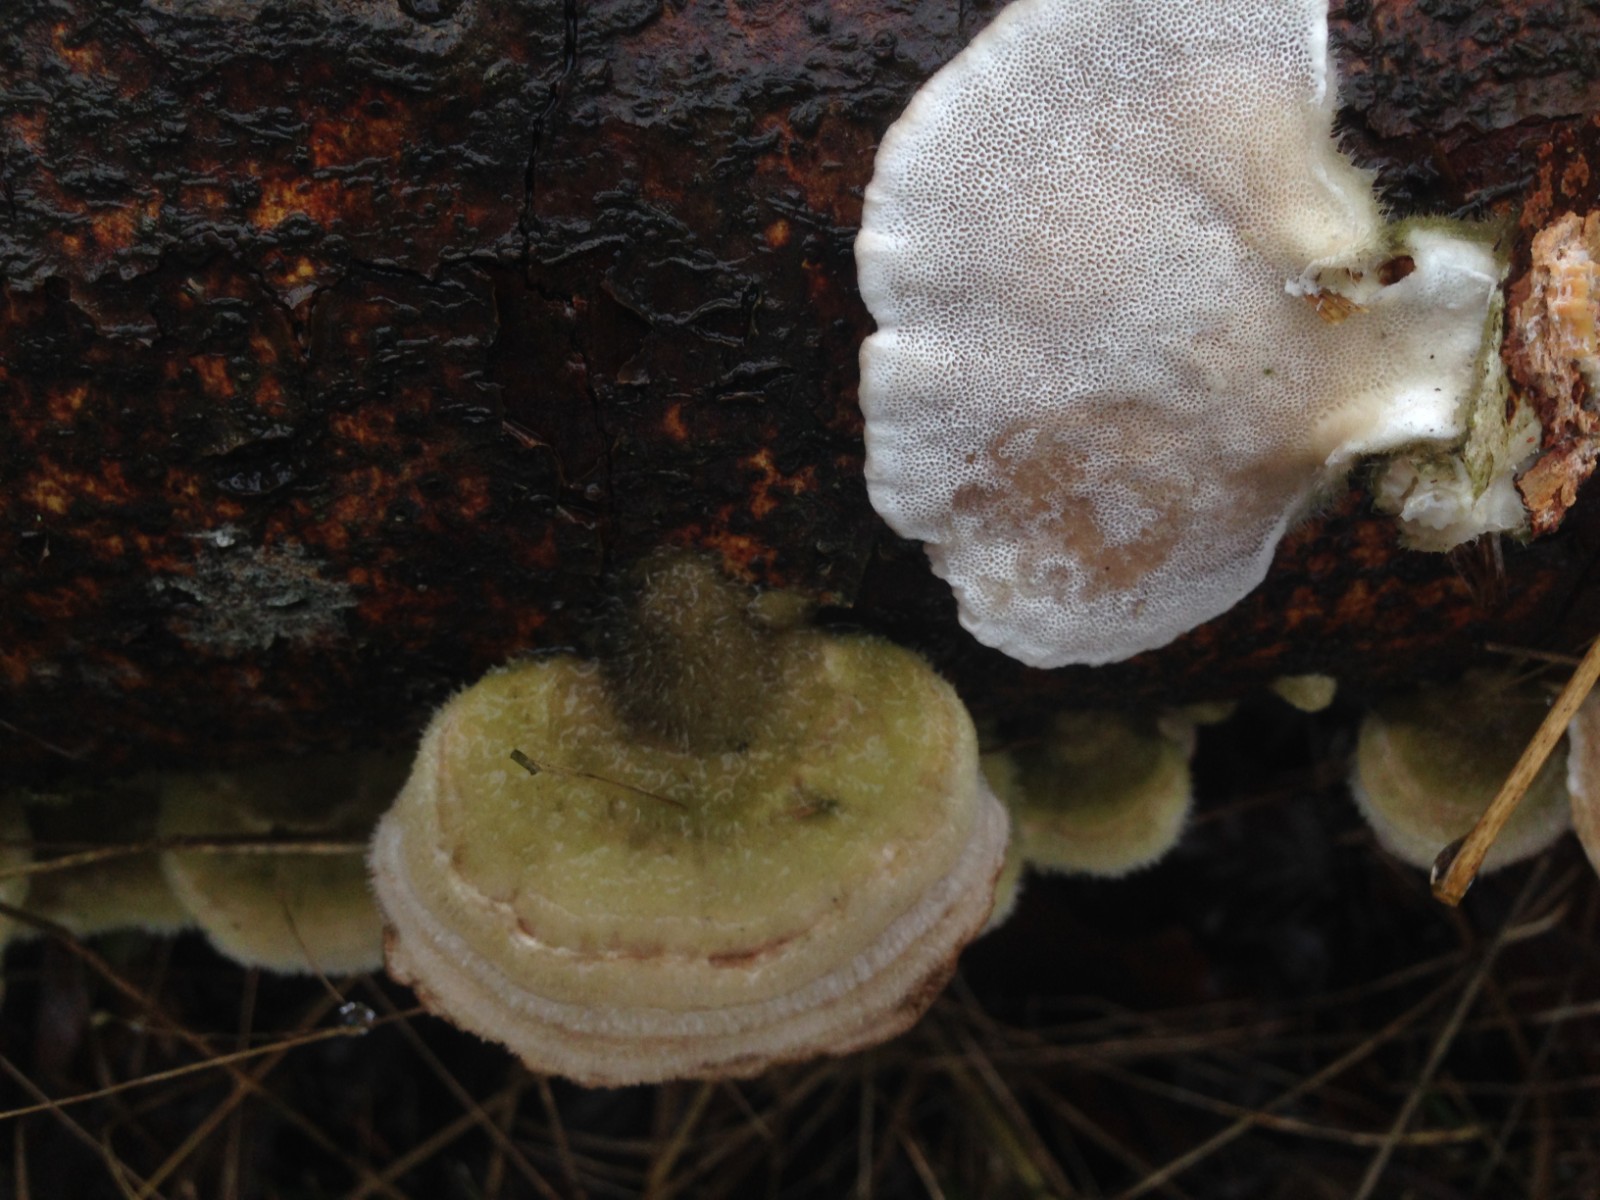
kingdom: Fungi
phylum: Basidiomycota
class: Agaricomycetes
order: Polyporales
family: Polyporaceae
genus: Trametes
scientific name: Trametes hirsuta
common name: håret læderporesvamp
